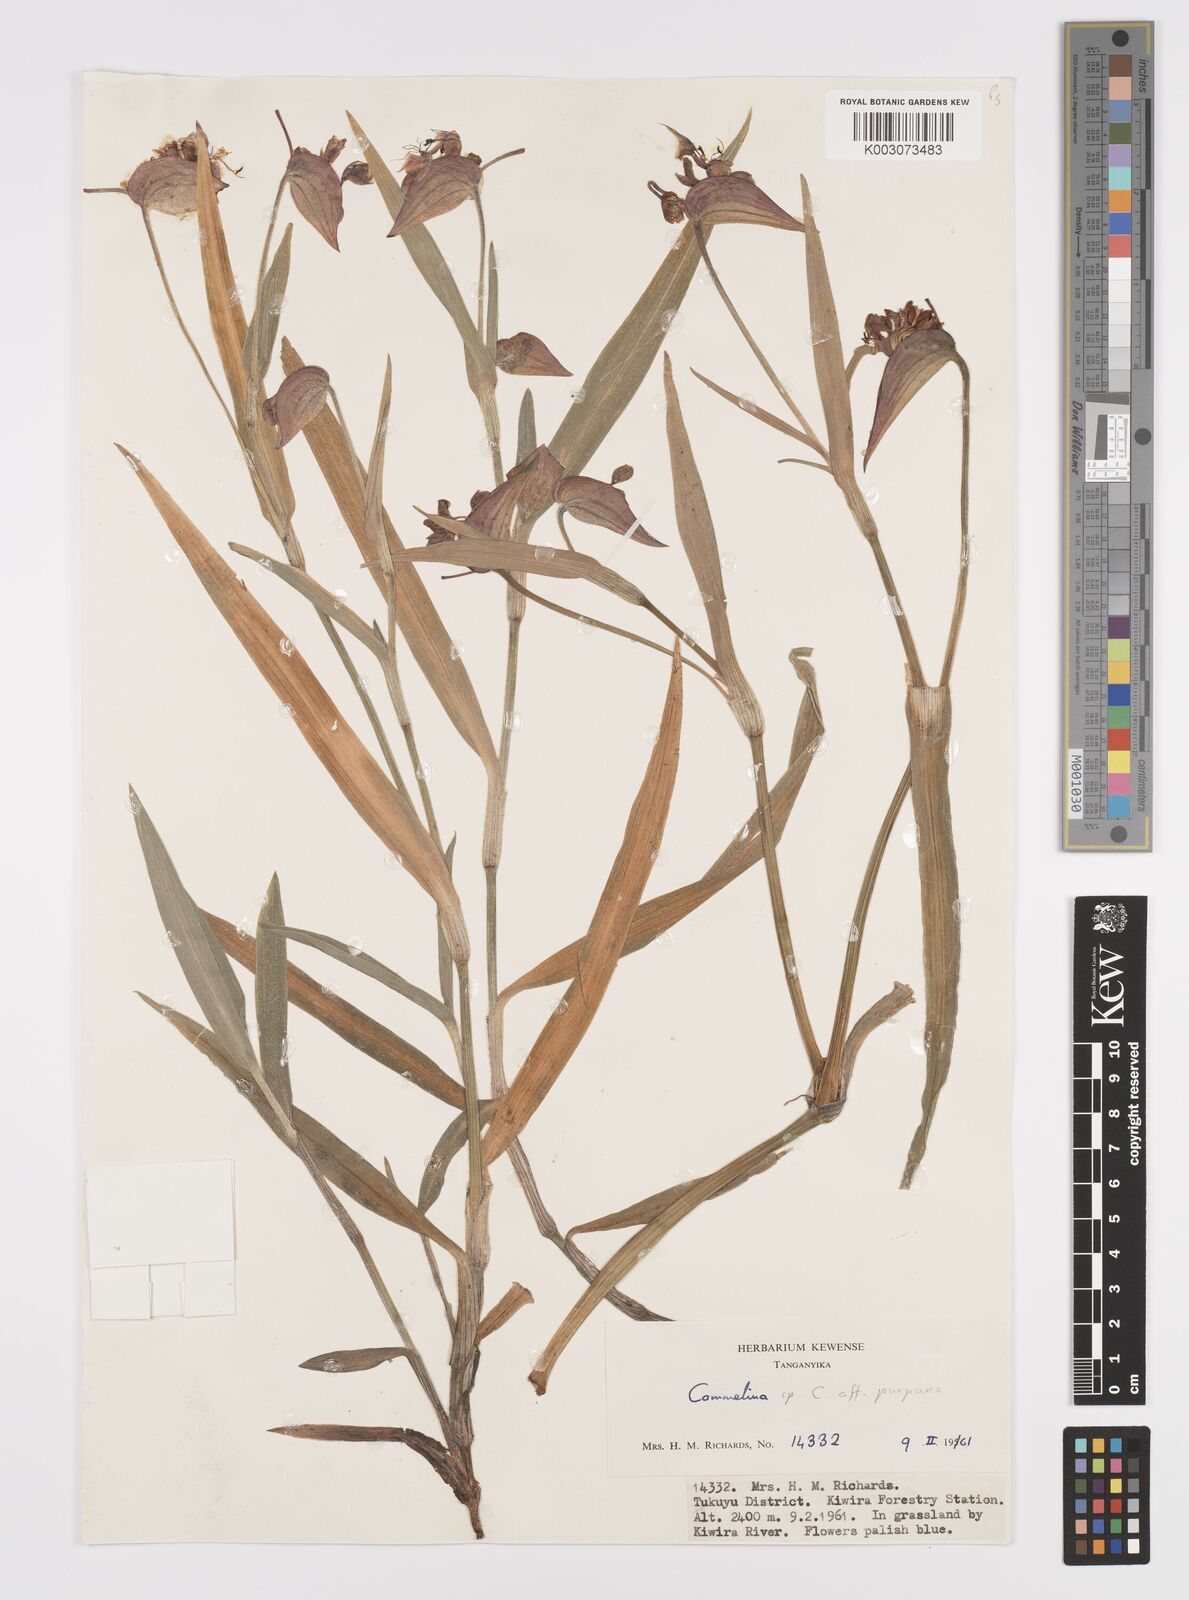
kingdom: Plantae
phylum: Tracheophyta
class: Liliopsida
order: Commelinales
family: Commelinaceae
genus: Commelina
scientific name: Commelina kituloensis
